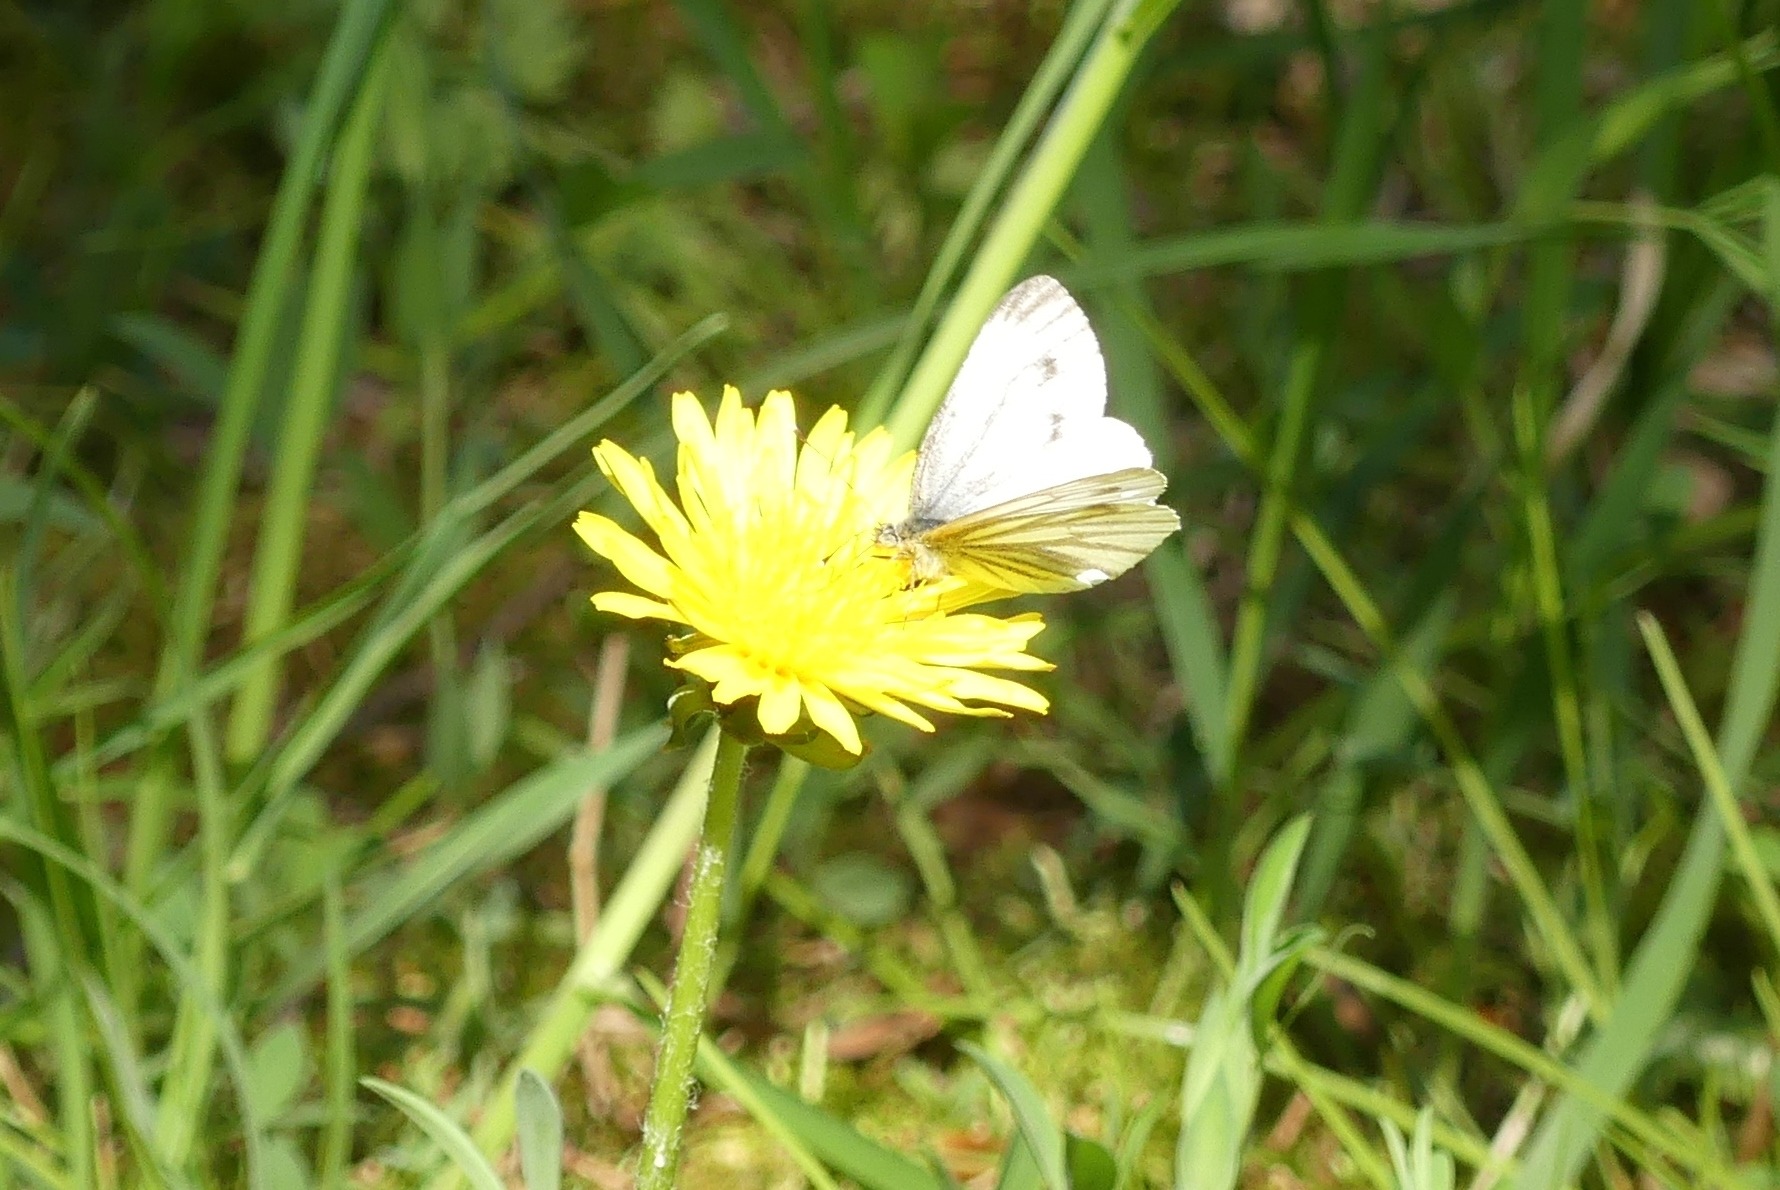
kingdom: Animalia
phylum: Arthropoda
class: Insecta
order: Lepidoptera
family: Pieridae
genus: Pieris
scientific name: Pieris napi
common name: Grønåret kålsommerfugl
